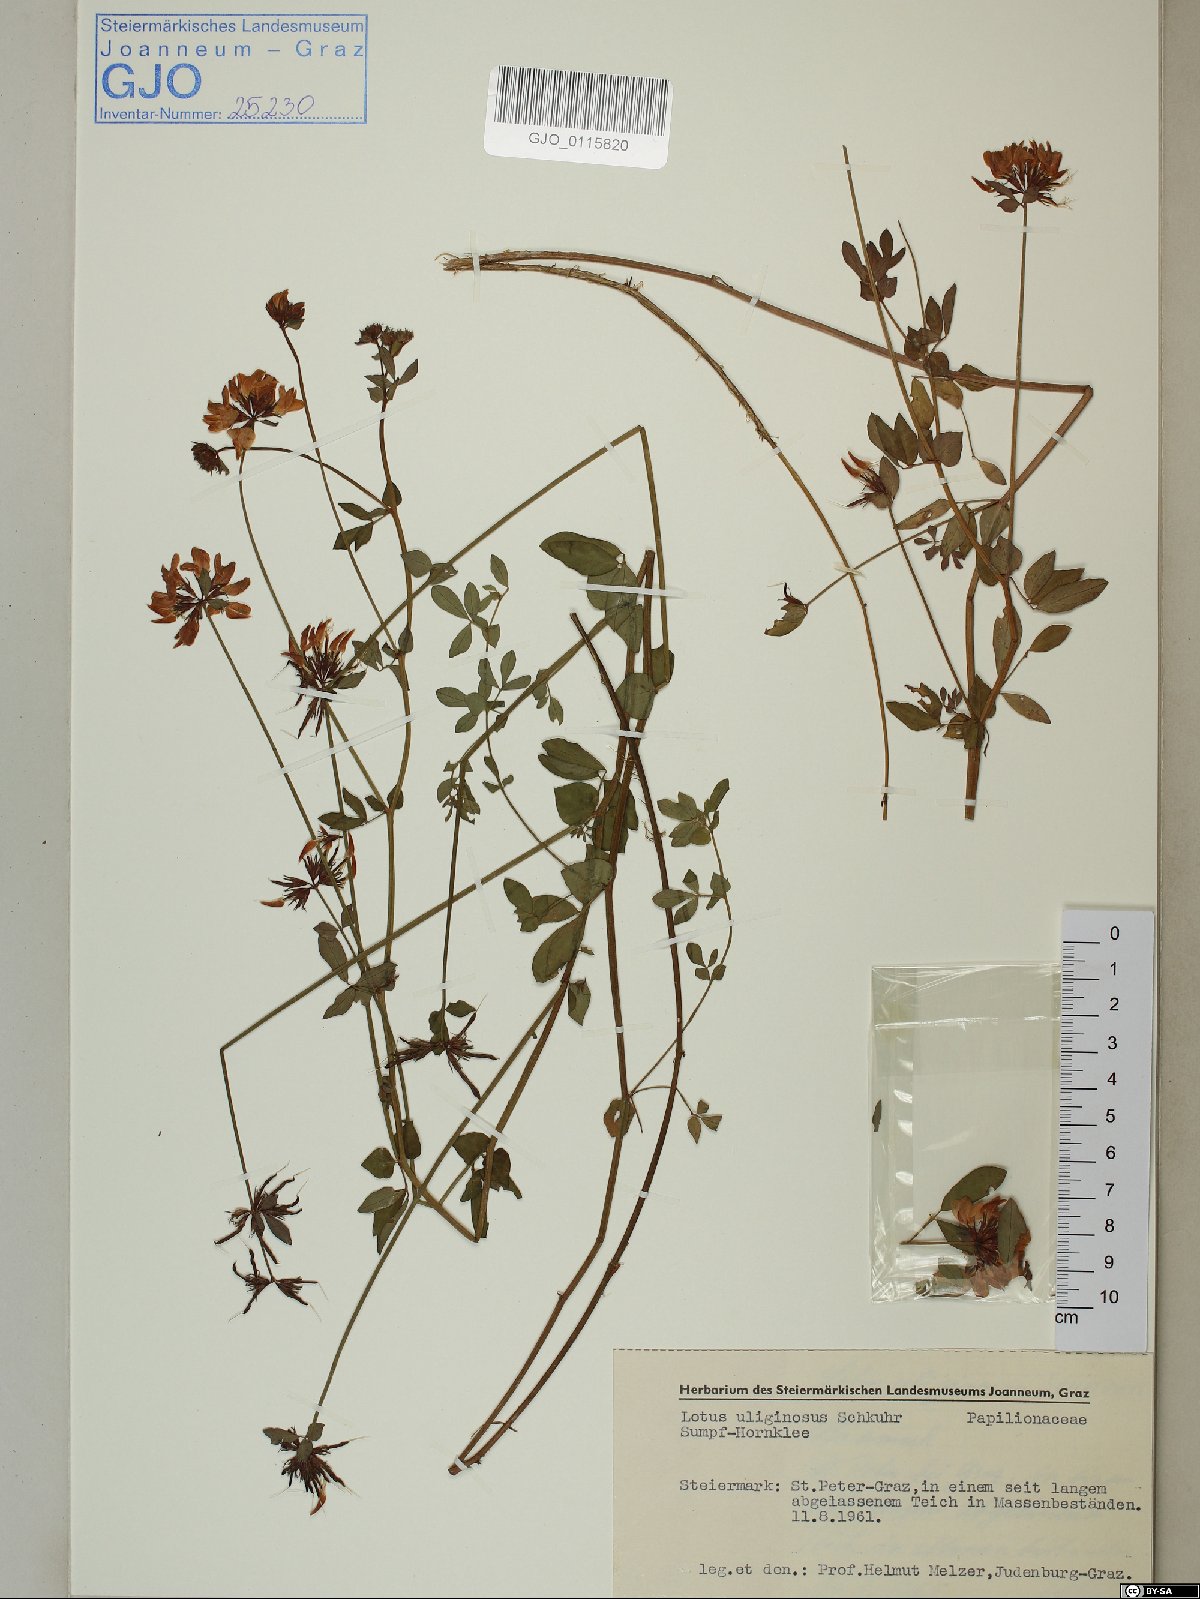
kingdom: Plantae
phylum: Tracheophyta
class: Magnoliopsida
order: Fabales
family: Fabaceae
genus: Lotus
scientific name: Lotus pedunculatus
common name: Greater birdsfoot-trefoil
